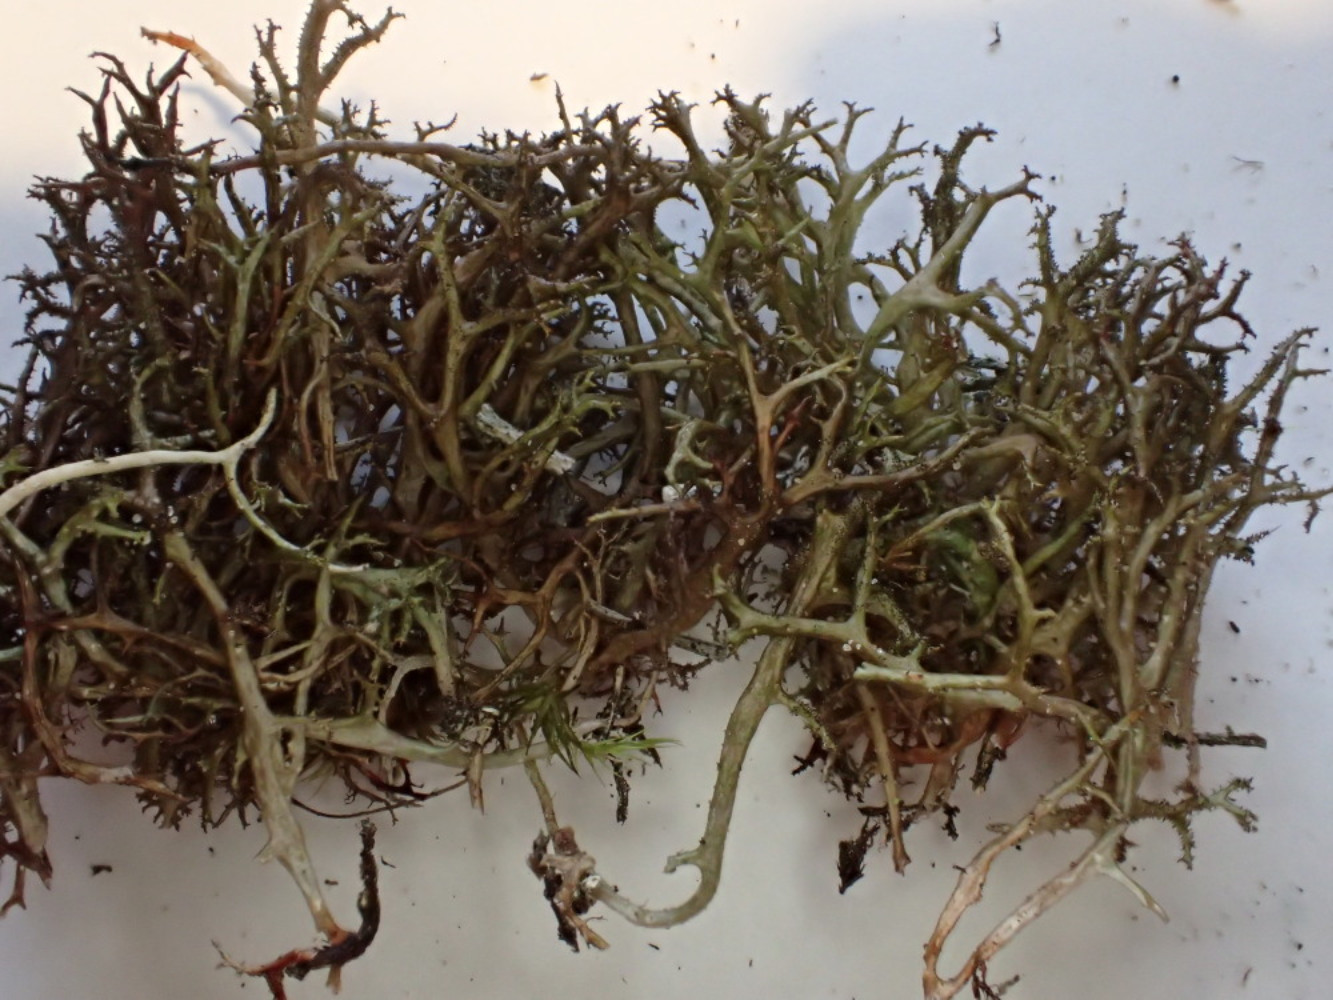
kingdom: Fungi
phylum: Ascomycota
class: Lecanoromycetes
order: Lecanorales
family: Parmeliaceae
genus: Cetraria
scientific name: Cetraria aculeata
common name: grubet tjørnelav
